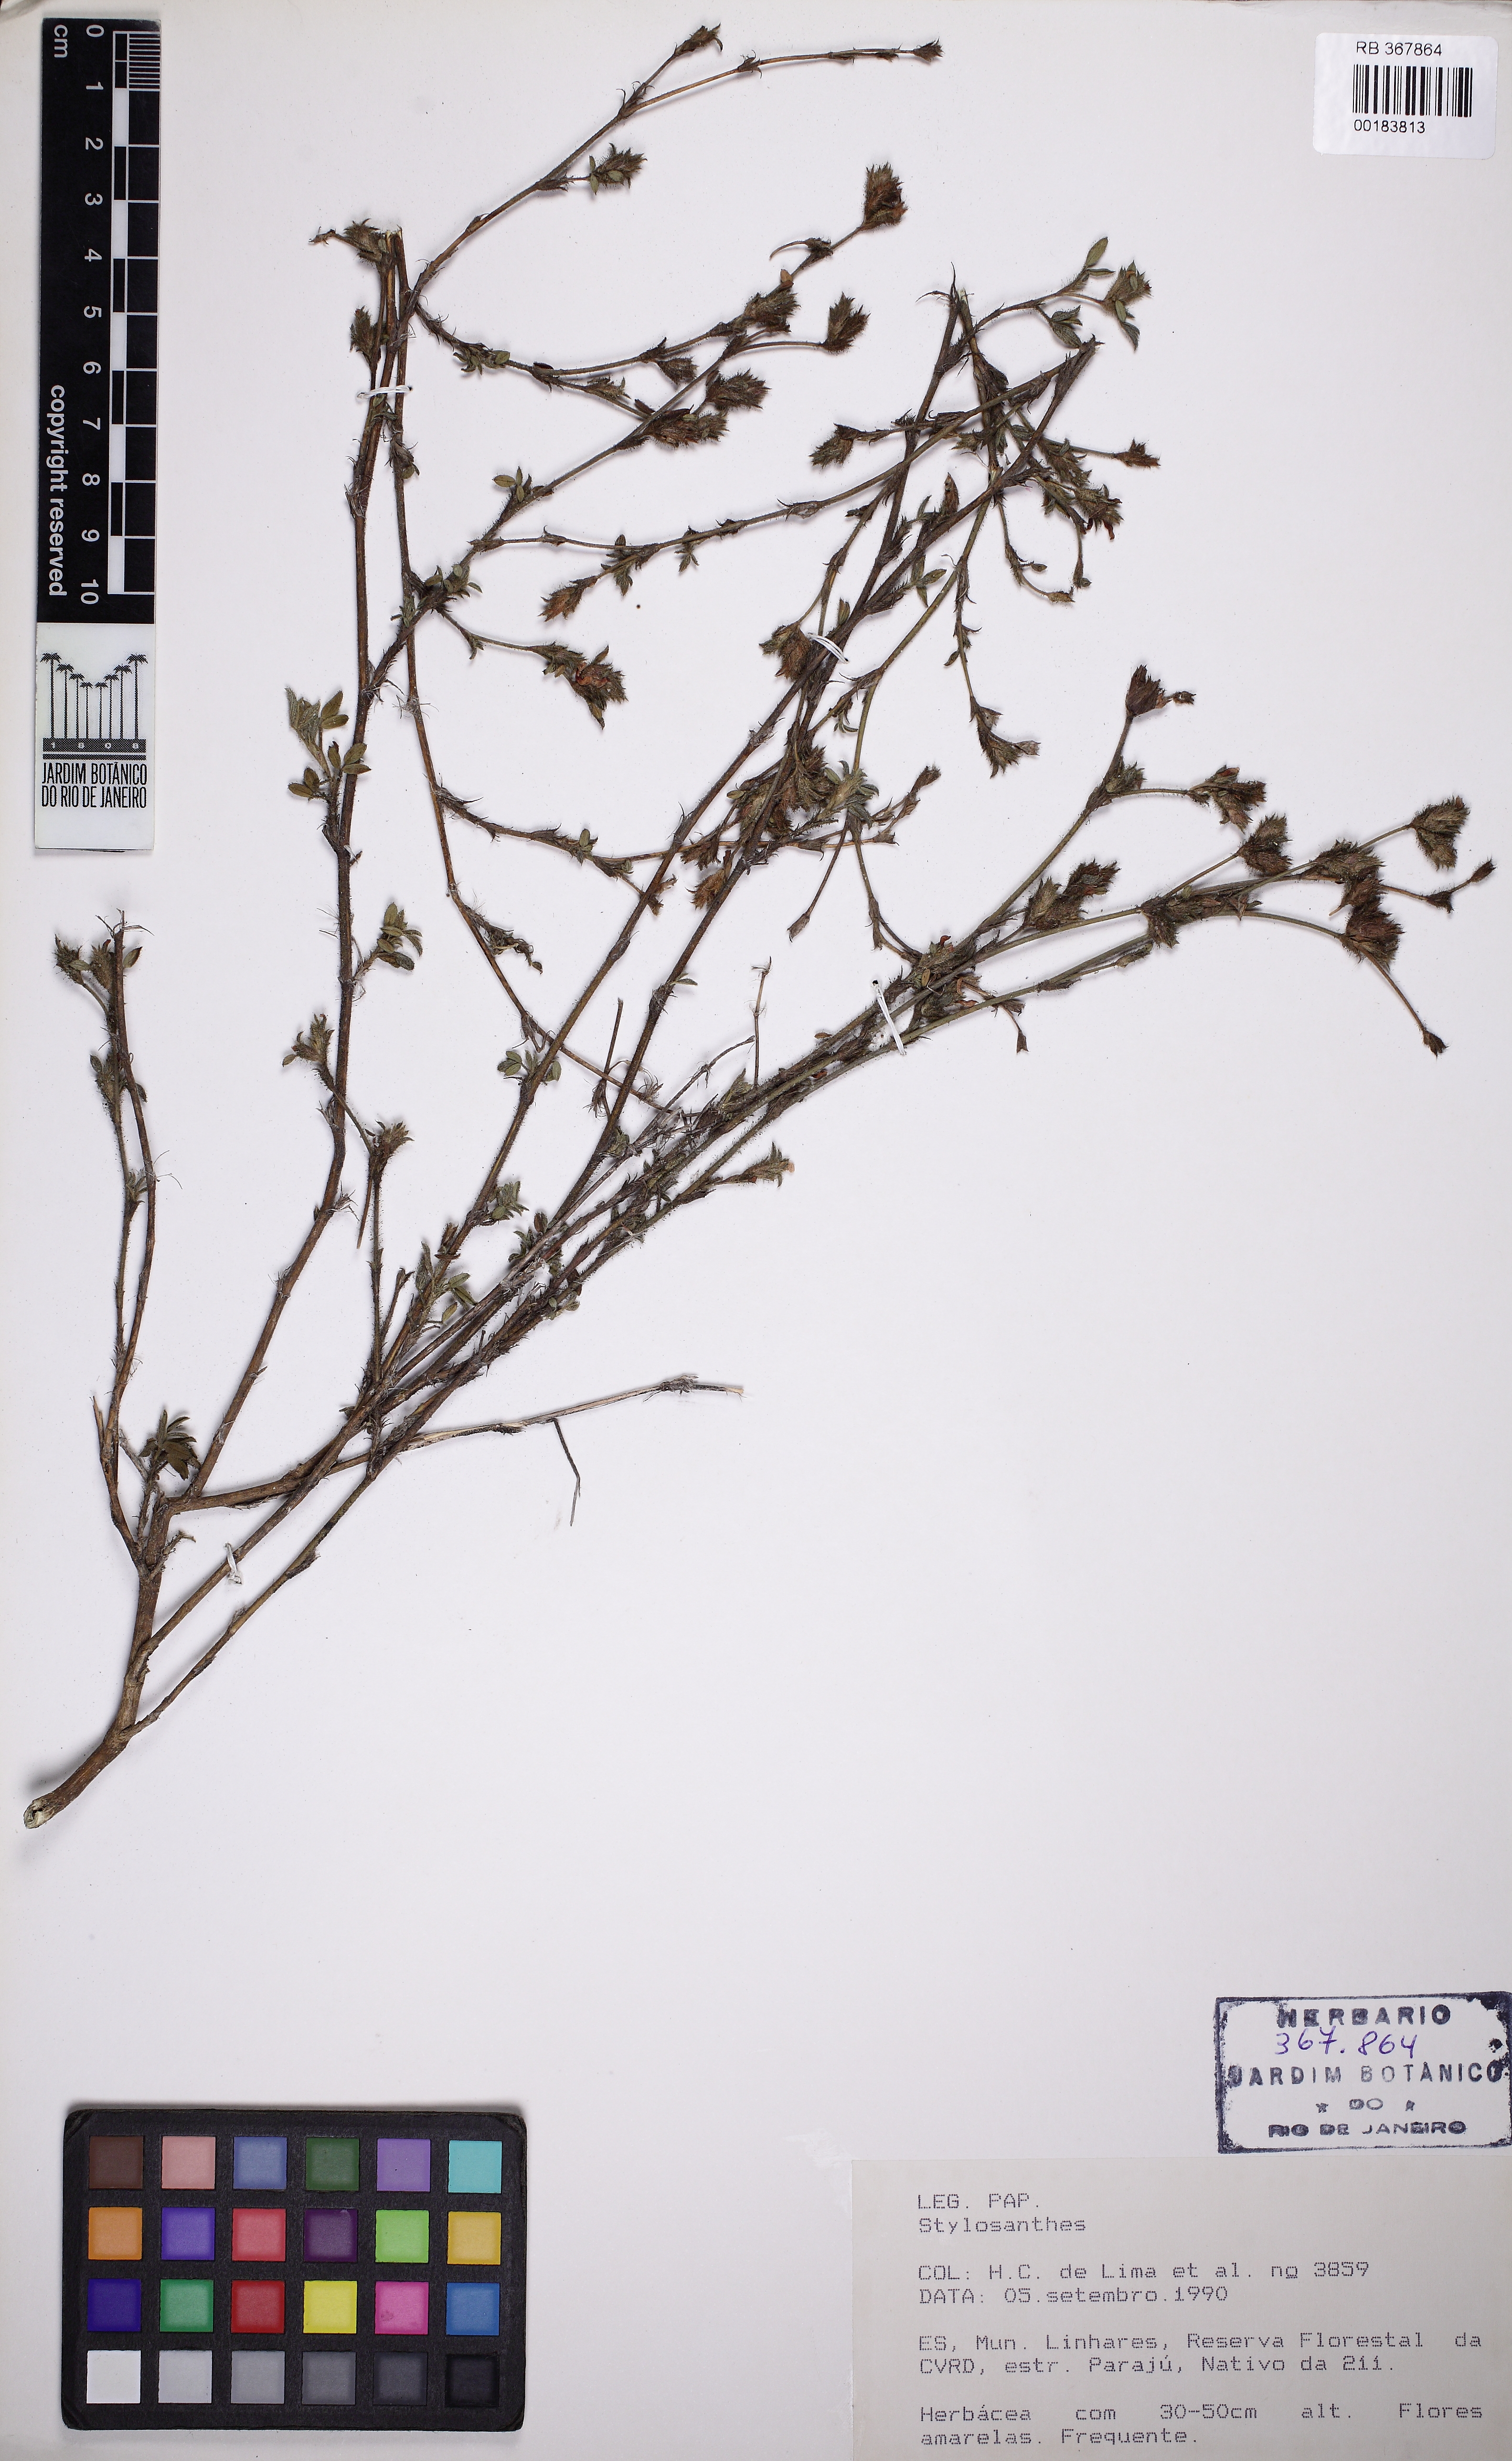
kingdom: Plantae
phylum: Tracheophyta
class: Magnoliopsida
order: Fabales
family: Fabaceae
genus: Stylosanthes
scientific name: Stylosanthes viscosa
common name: Viscid pencil-flower
